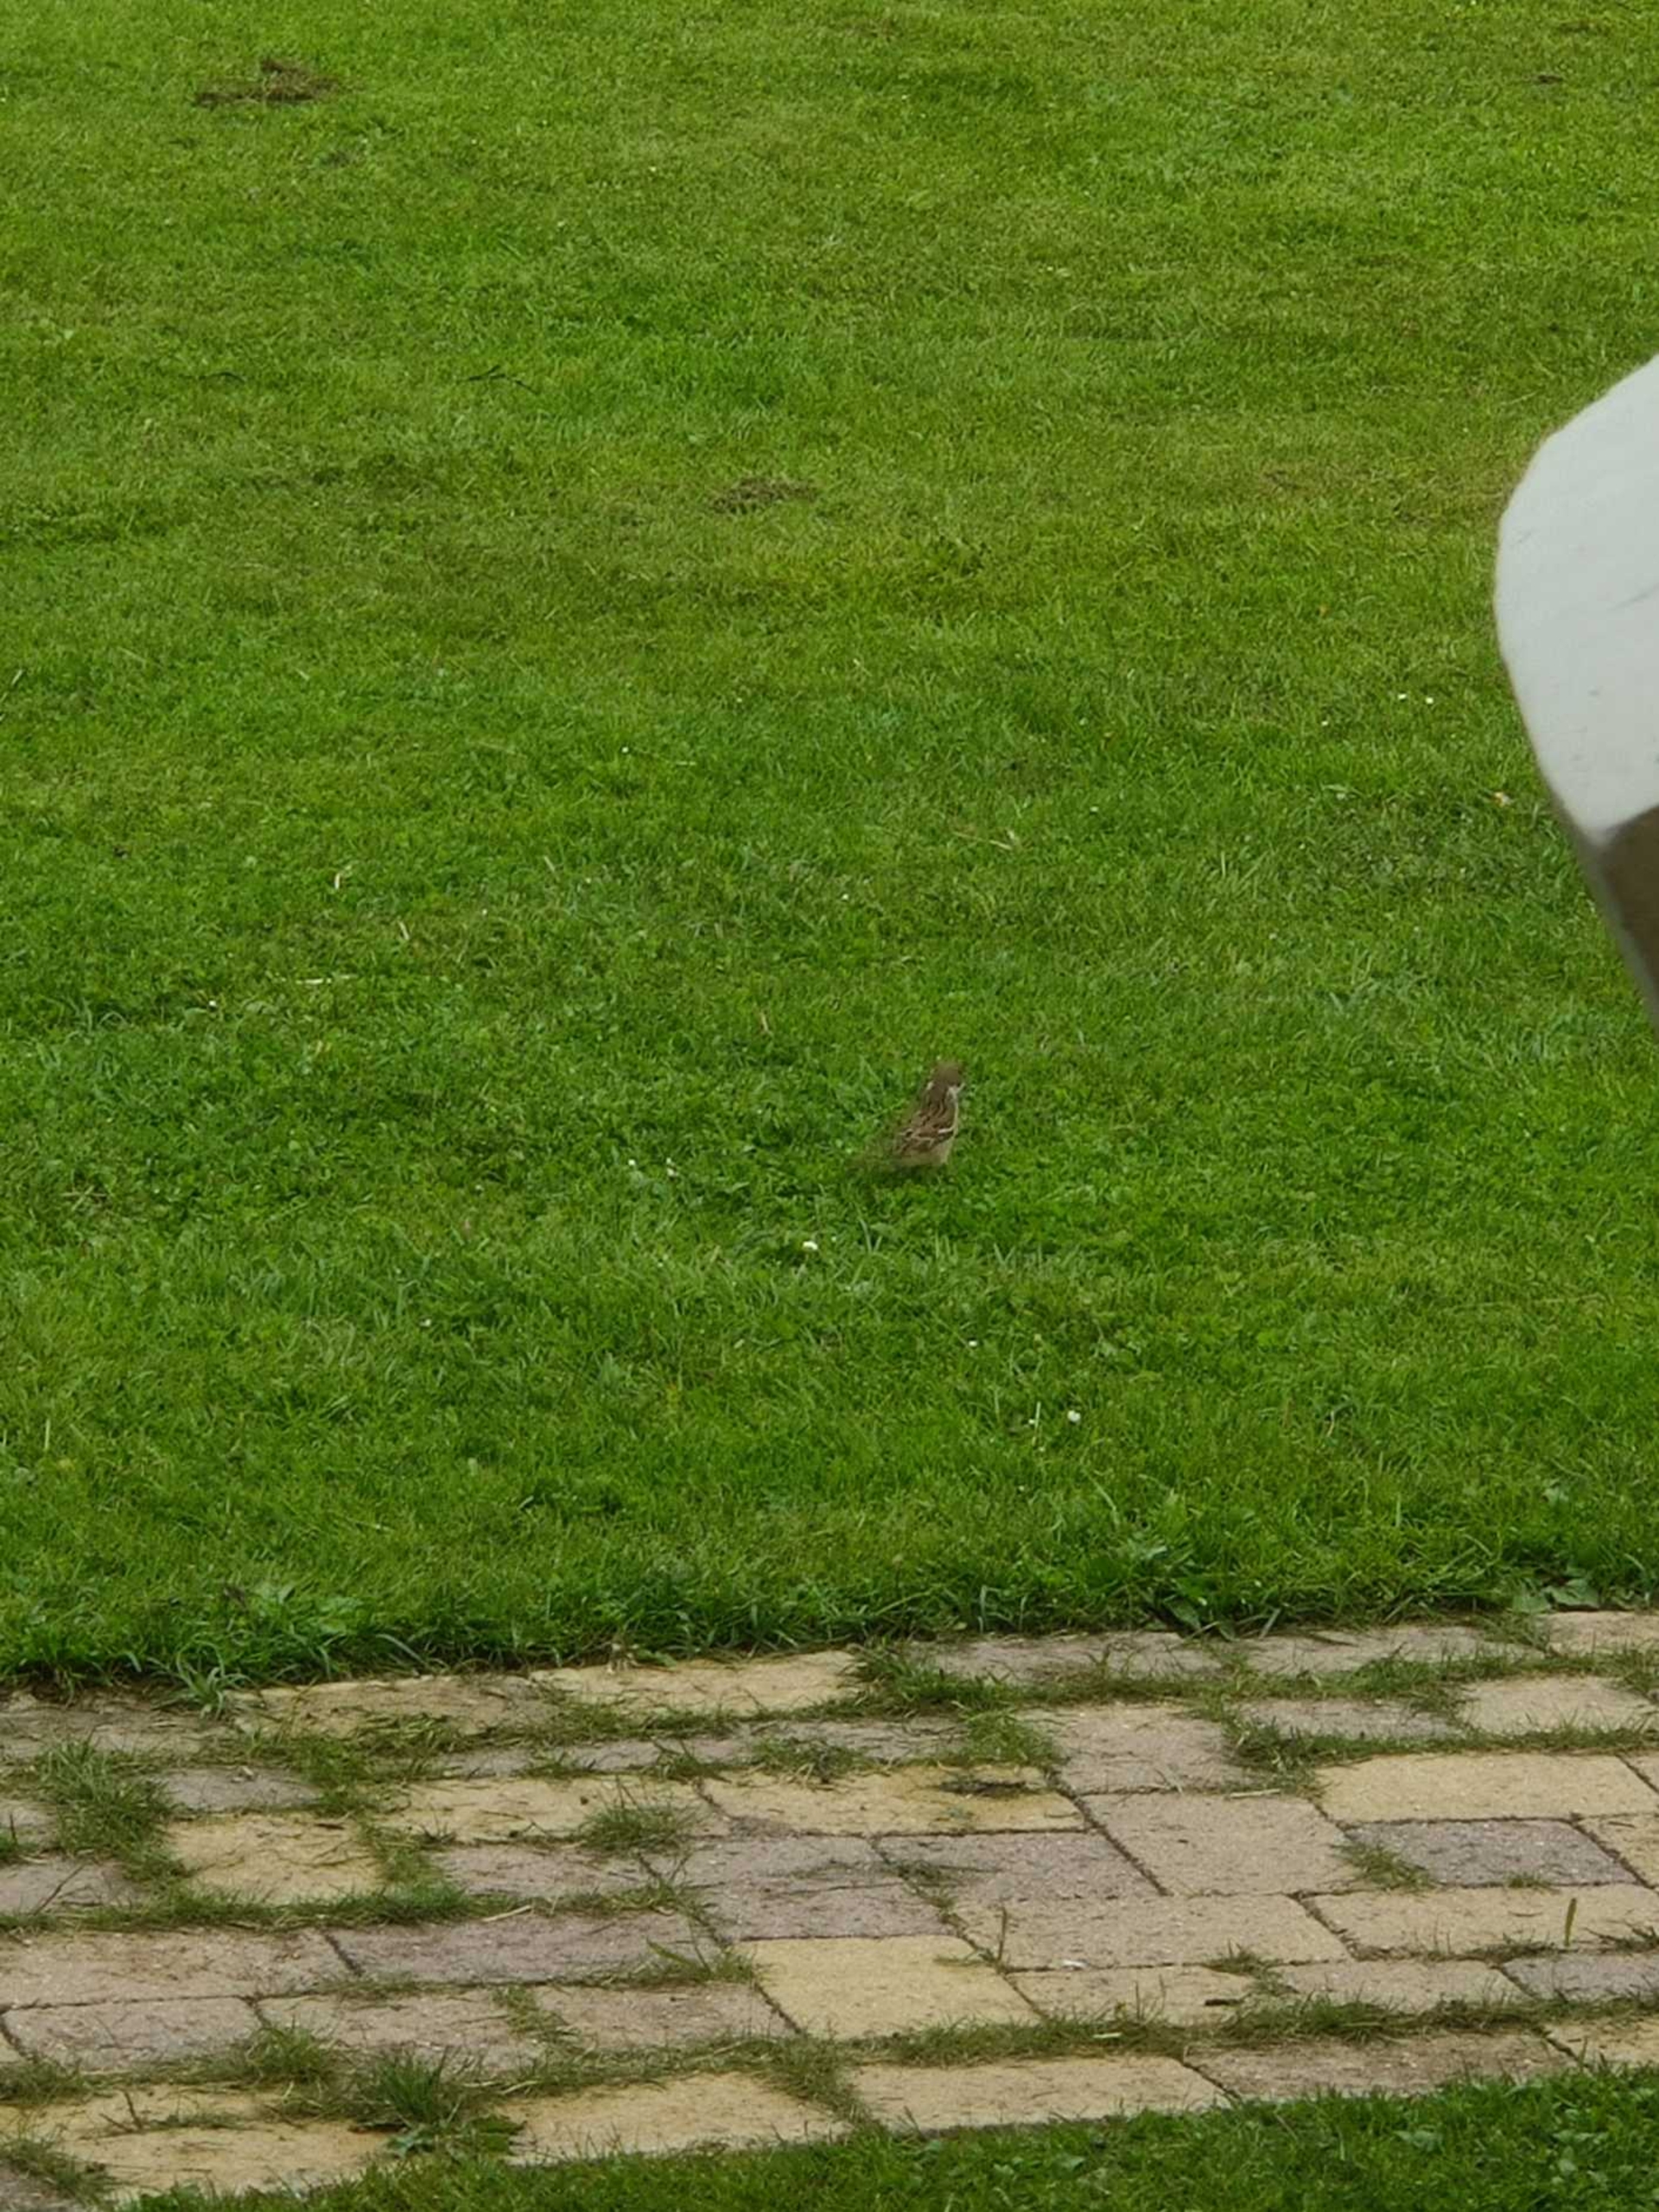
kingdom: Animalia
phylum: Chordata
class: Aves
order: Passeriformes
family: Passeridae
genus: Passer
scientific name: Passer montanus
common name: Skovspurv
